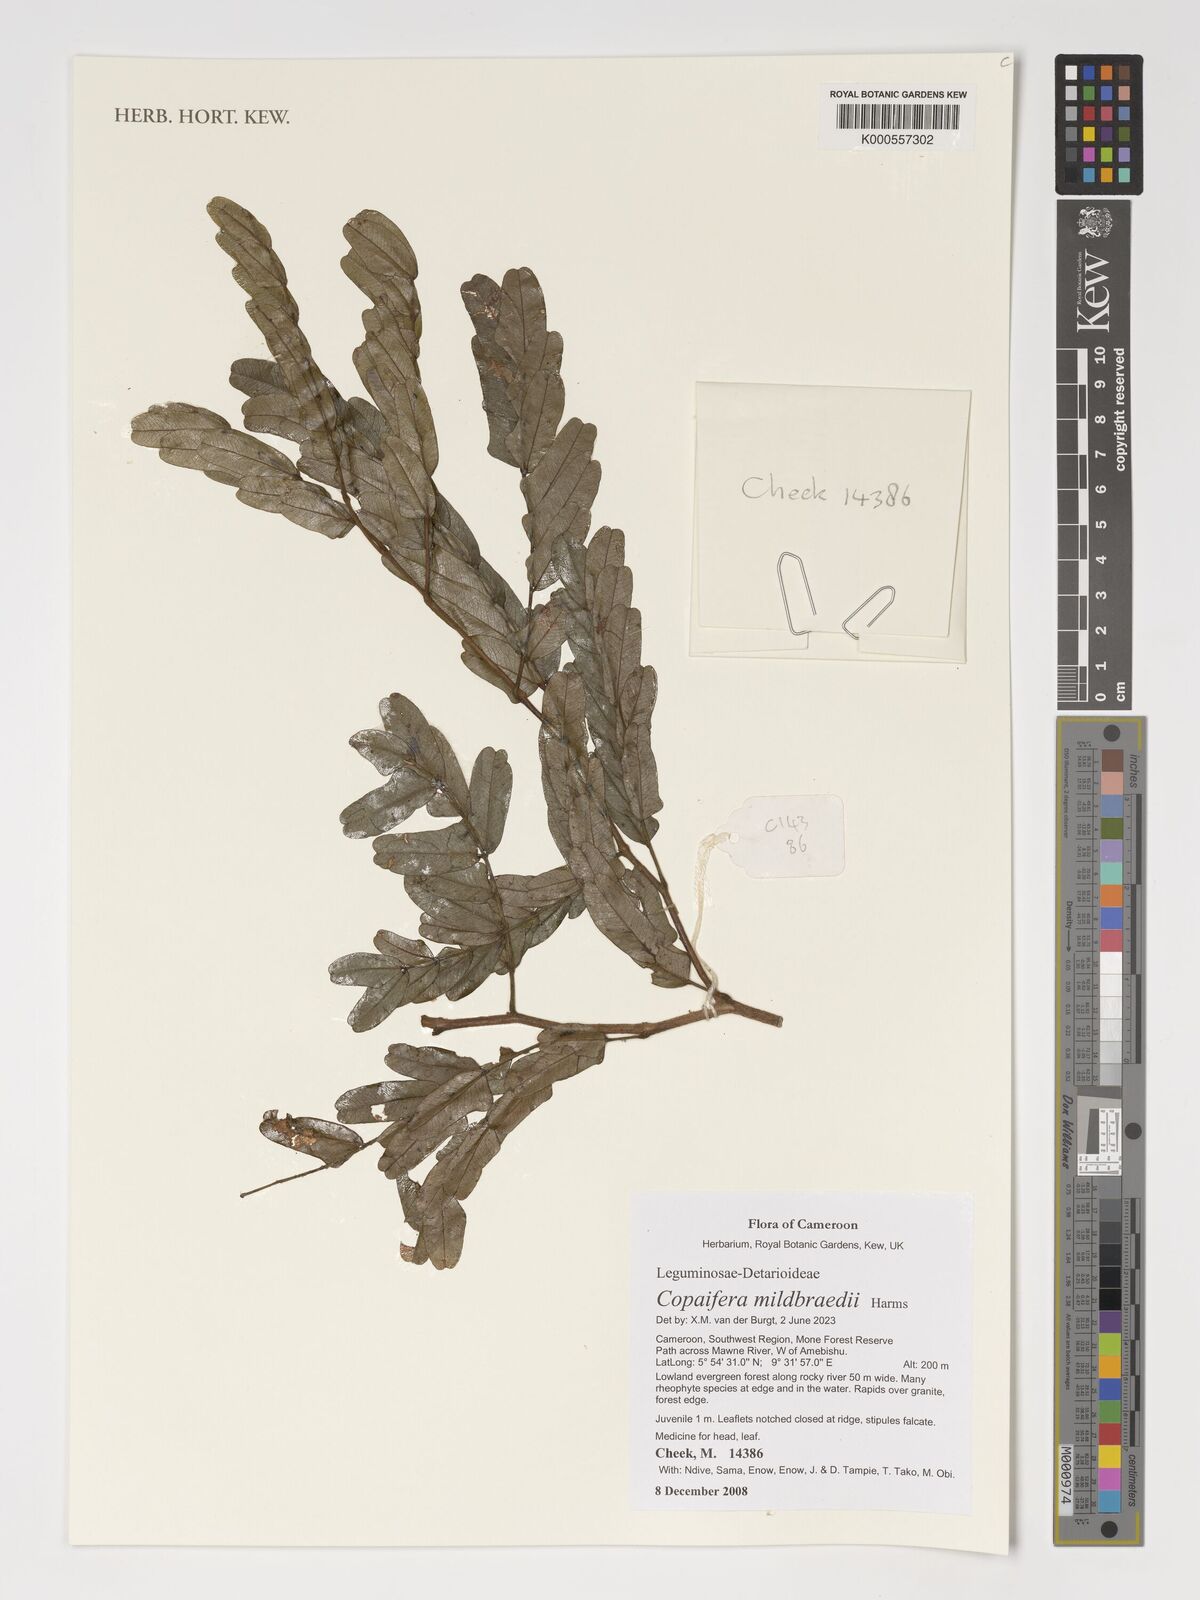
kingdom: Plantae
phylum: Tracheophyta
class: Magnoliopsida
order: Fabales
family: Fabaceae
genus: Copaifera
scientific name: Copaifera mildbraedii
